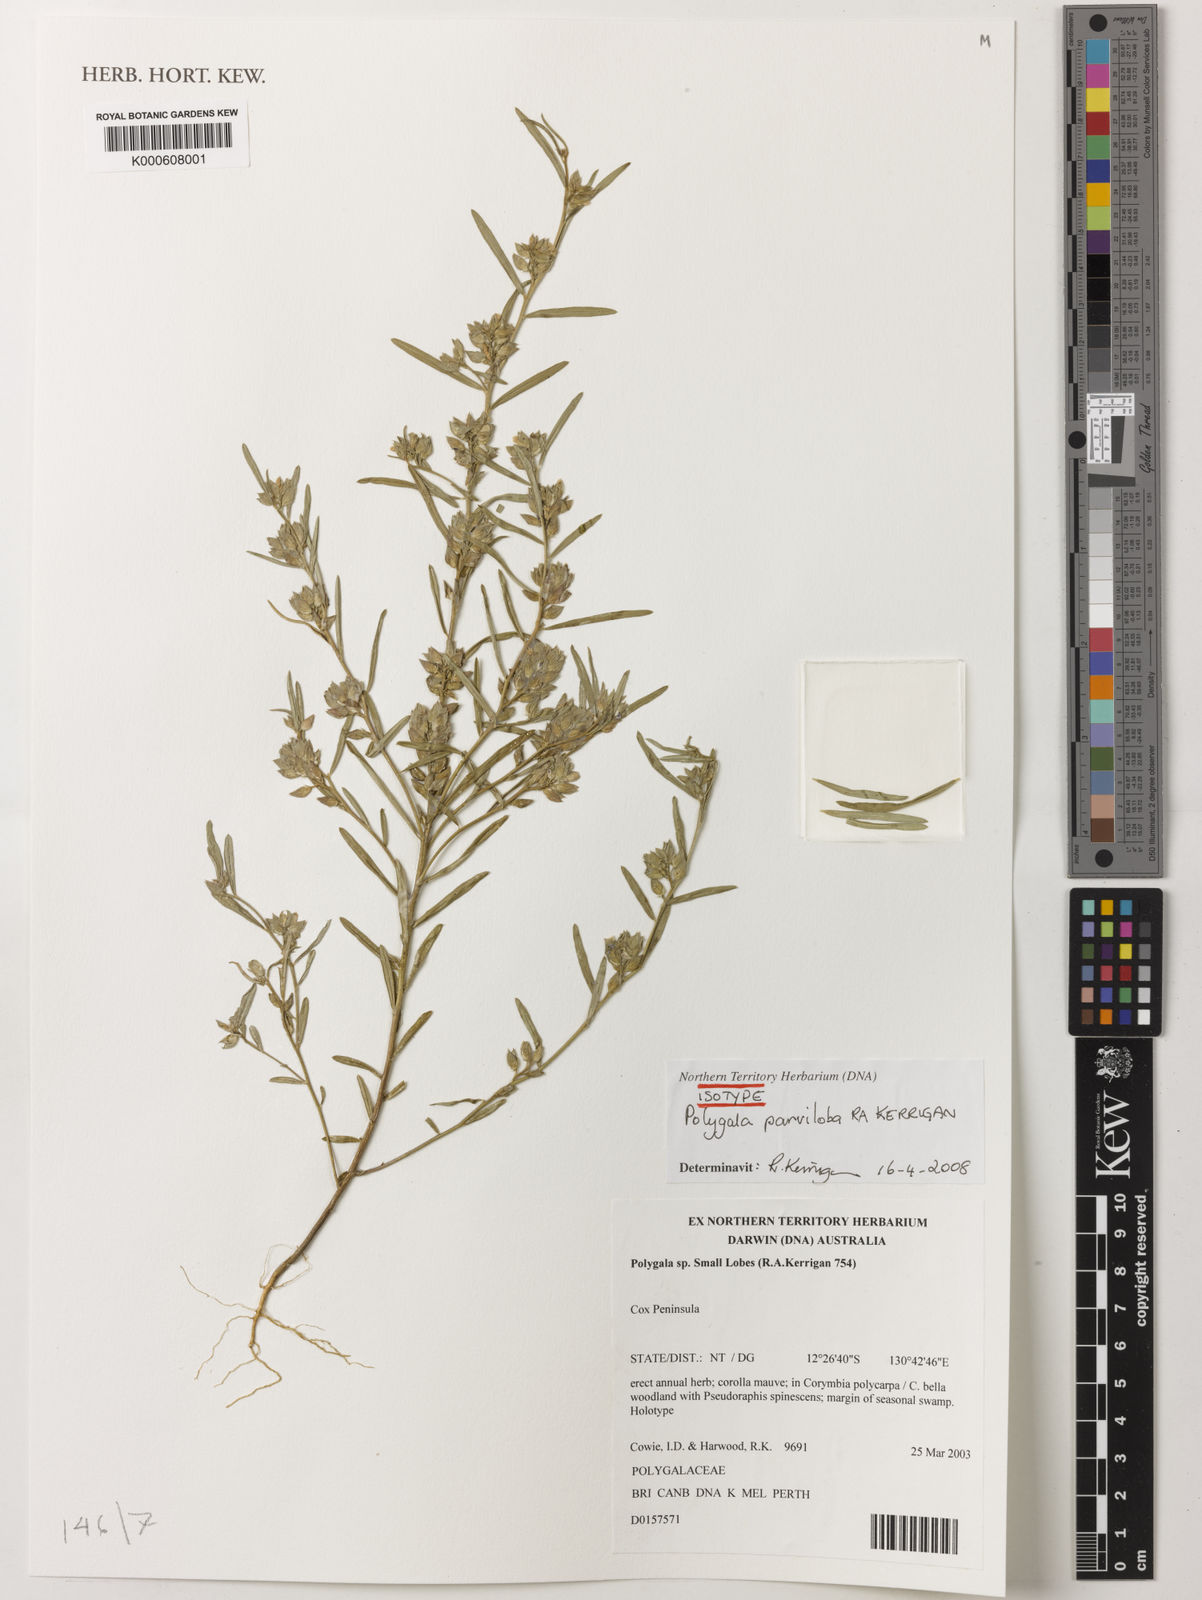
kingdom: Plantae
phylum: Tracheophyta
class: Magnoliopsida
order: Fabales
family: Polygalaceae
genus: Polygala
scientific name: Polygala parviloba
